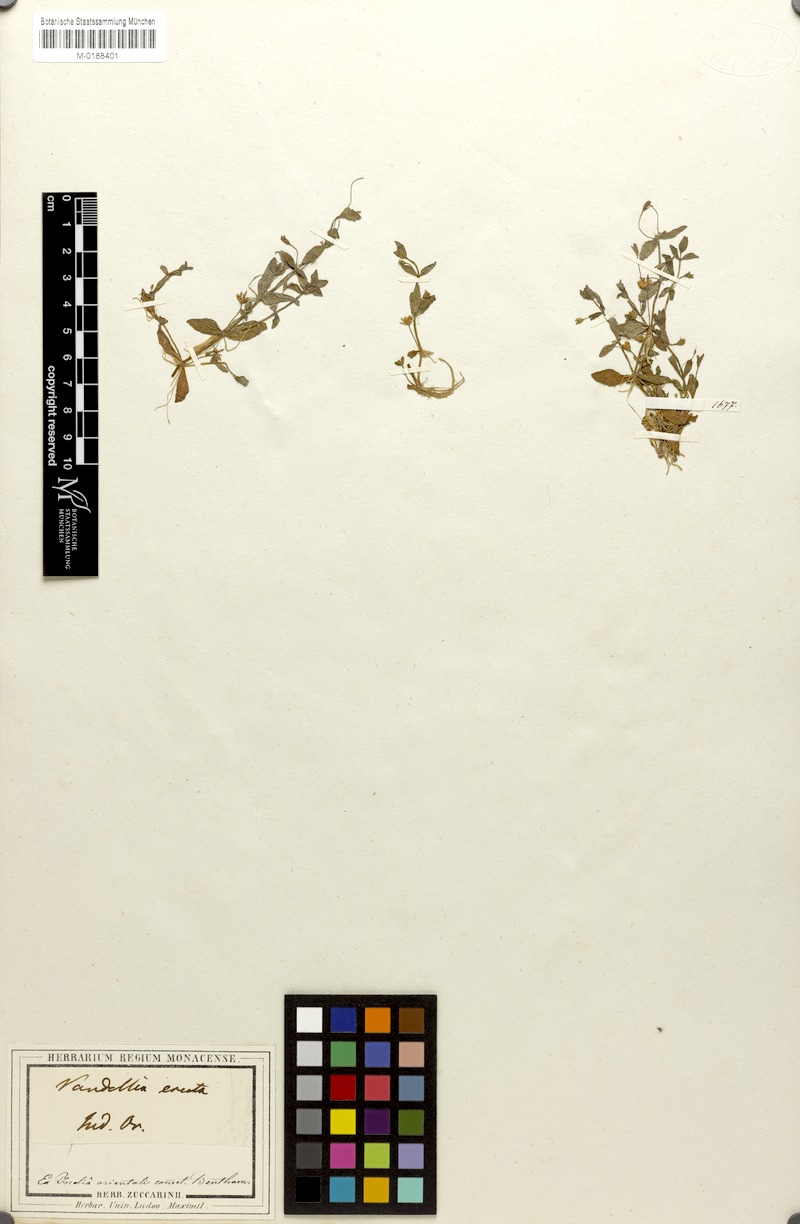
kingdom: Plantae
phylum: Tracheophyta
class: Magnoliopsida
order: Lamiales
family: Linderniaceae
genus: Lindernia
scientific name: Lindernia procumbens
